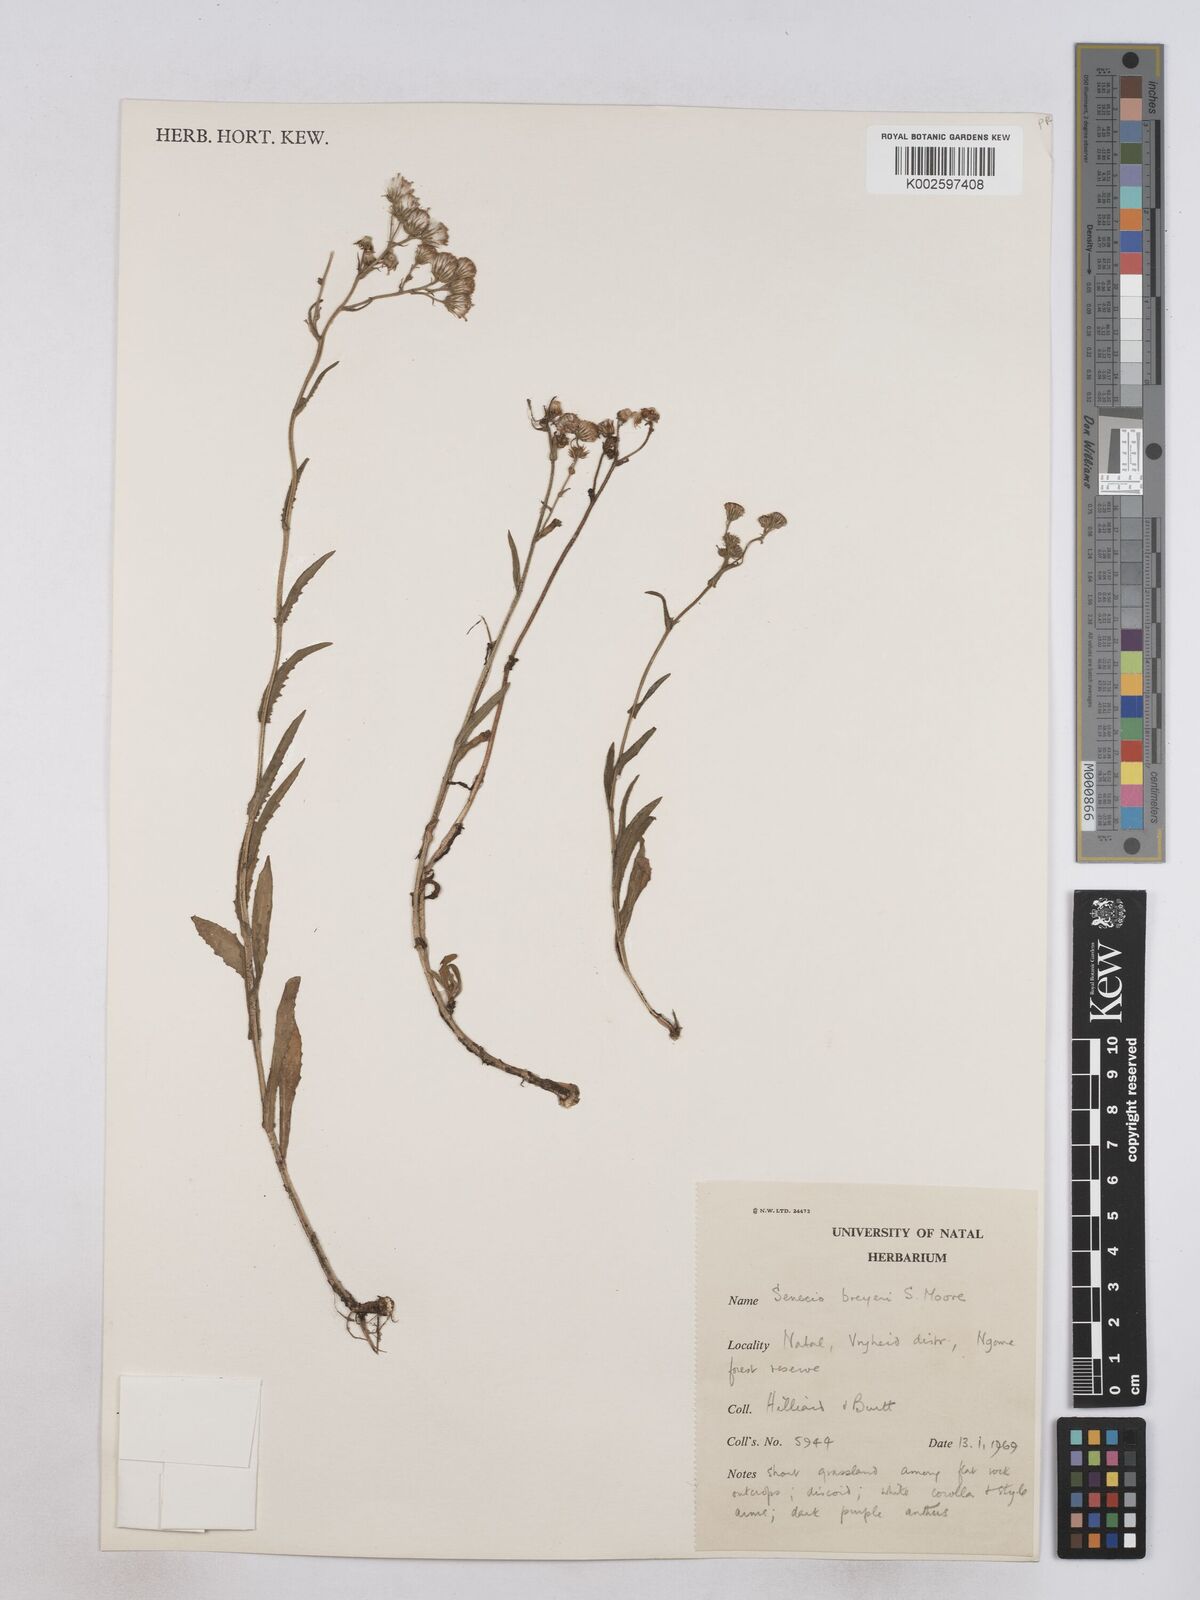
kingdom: Plantae
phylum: Tracheophyta
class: Magnoliopsida
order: Asterales
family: Asteraceae
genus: Senecio
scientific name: Senecio polyodon
